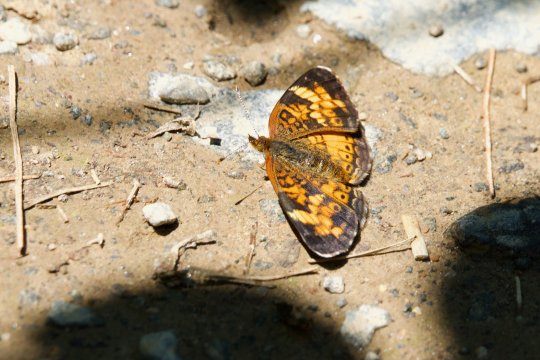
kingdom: Animalia
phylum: Arthropoda
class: Insecta
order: Lepidoptera
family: Nymphalidae
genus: Phyciodes
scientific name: Phyciodes tharos
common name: Northern Crescent
